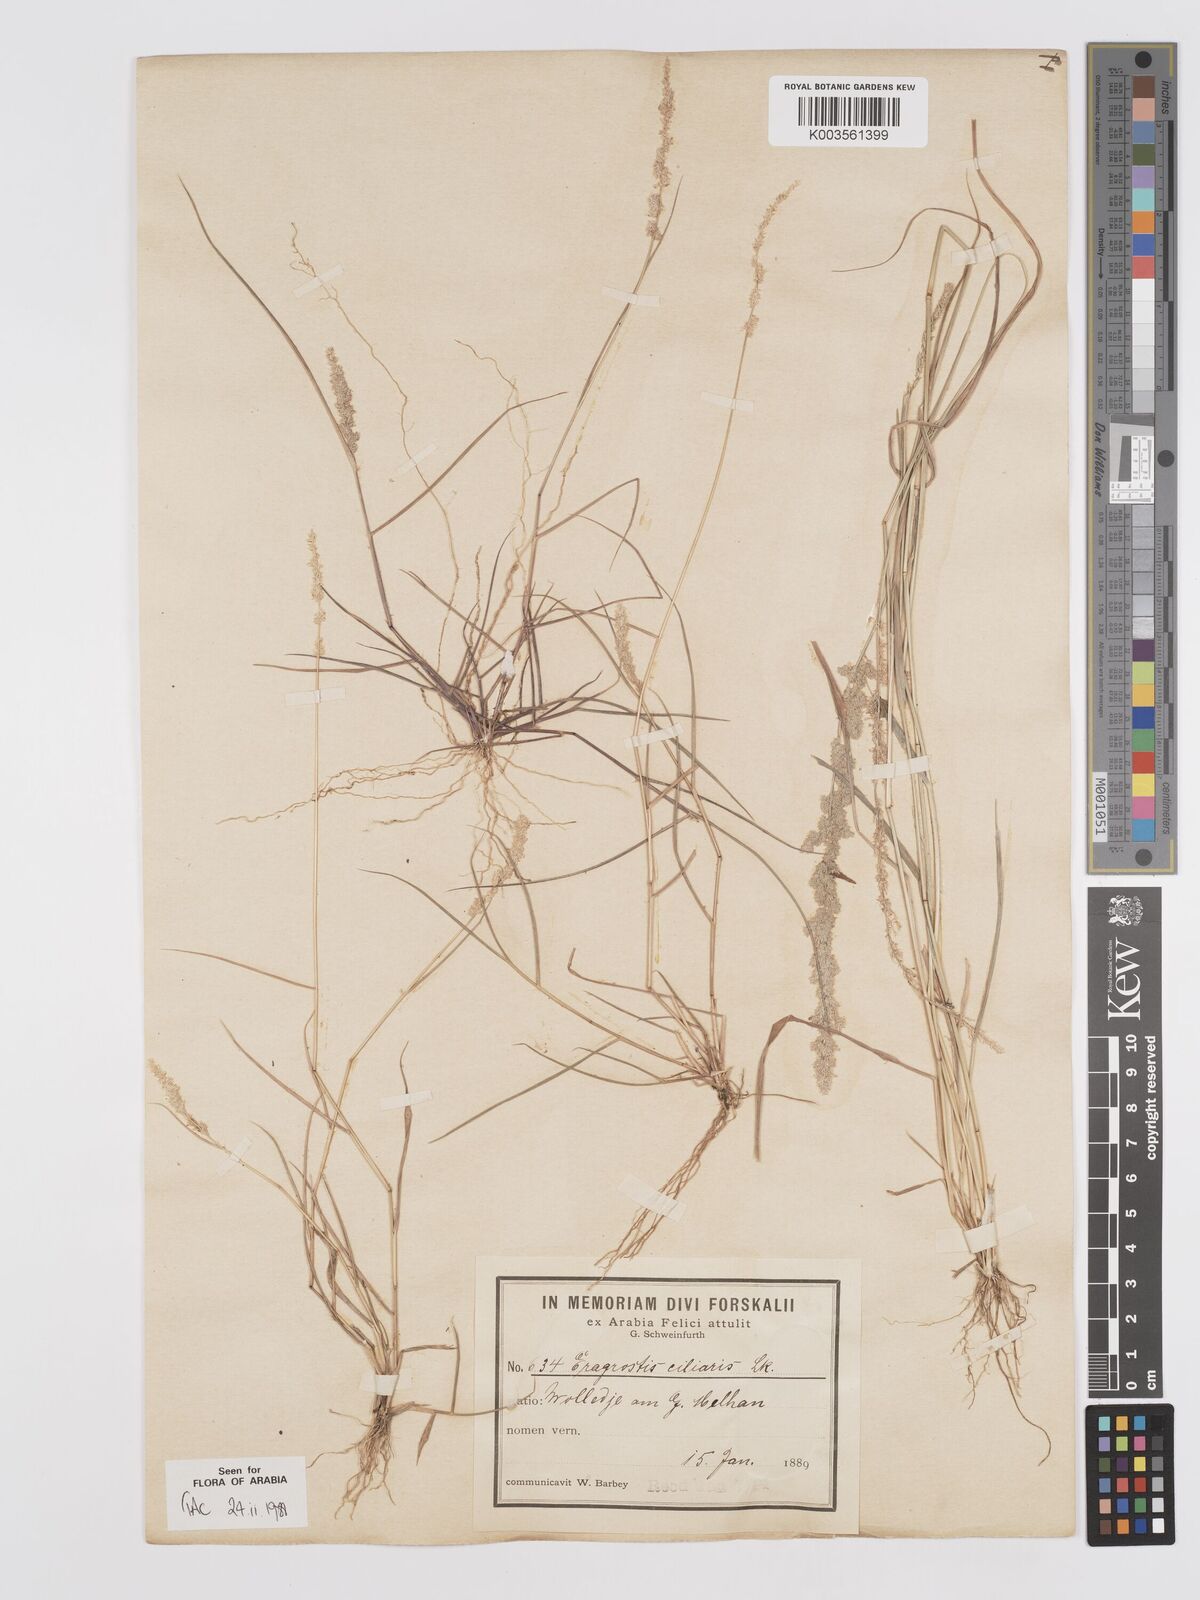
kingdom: Plantae
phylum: Tracheophyta
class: Liliopsida
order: Poales
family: Poaceae
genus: Eragrostis
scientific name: Eragrostis ciliaris
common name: Gophertail lovegrass
